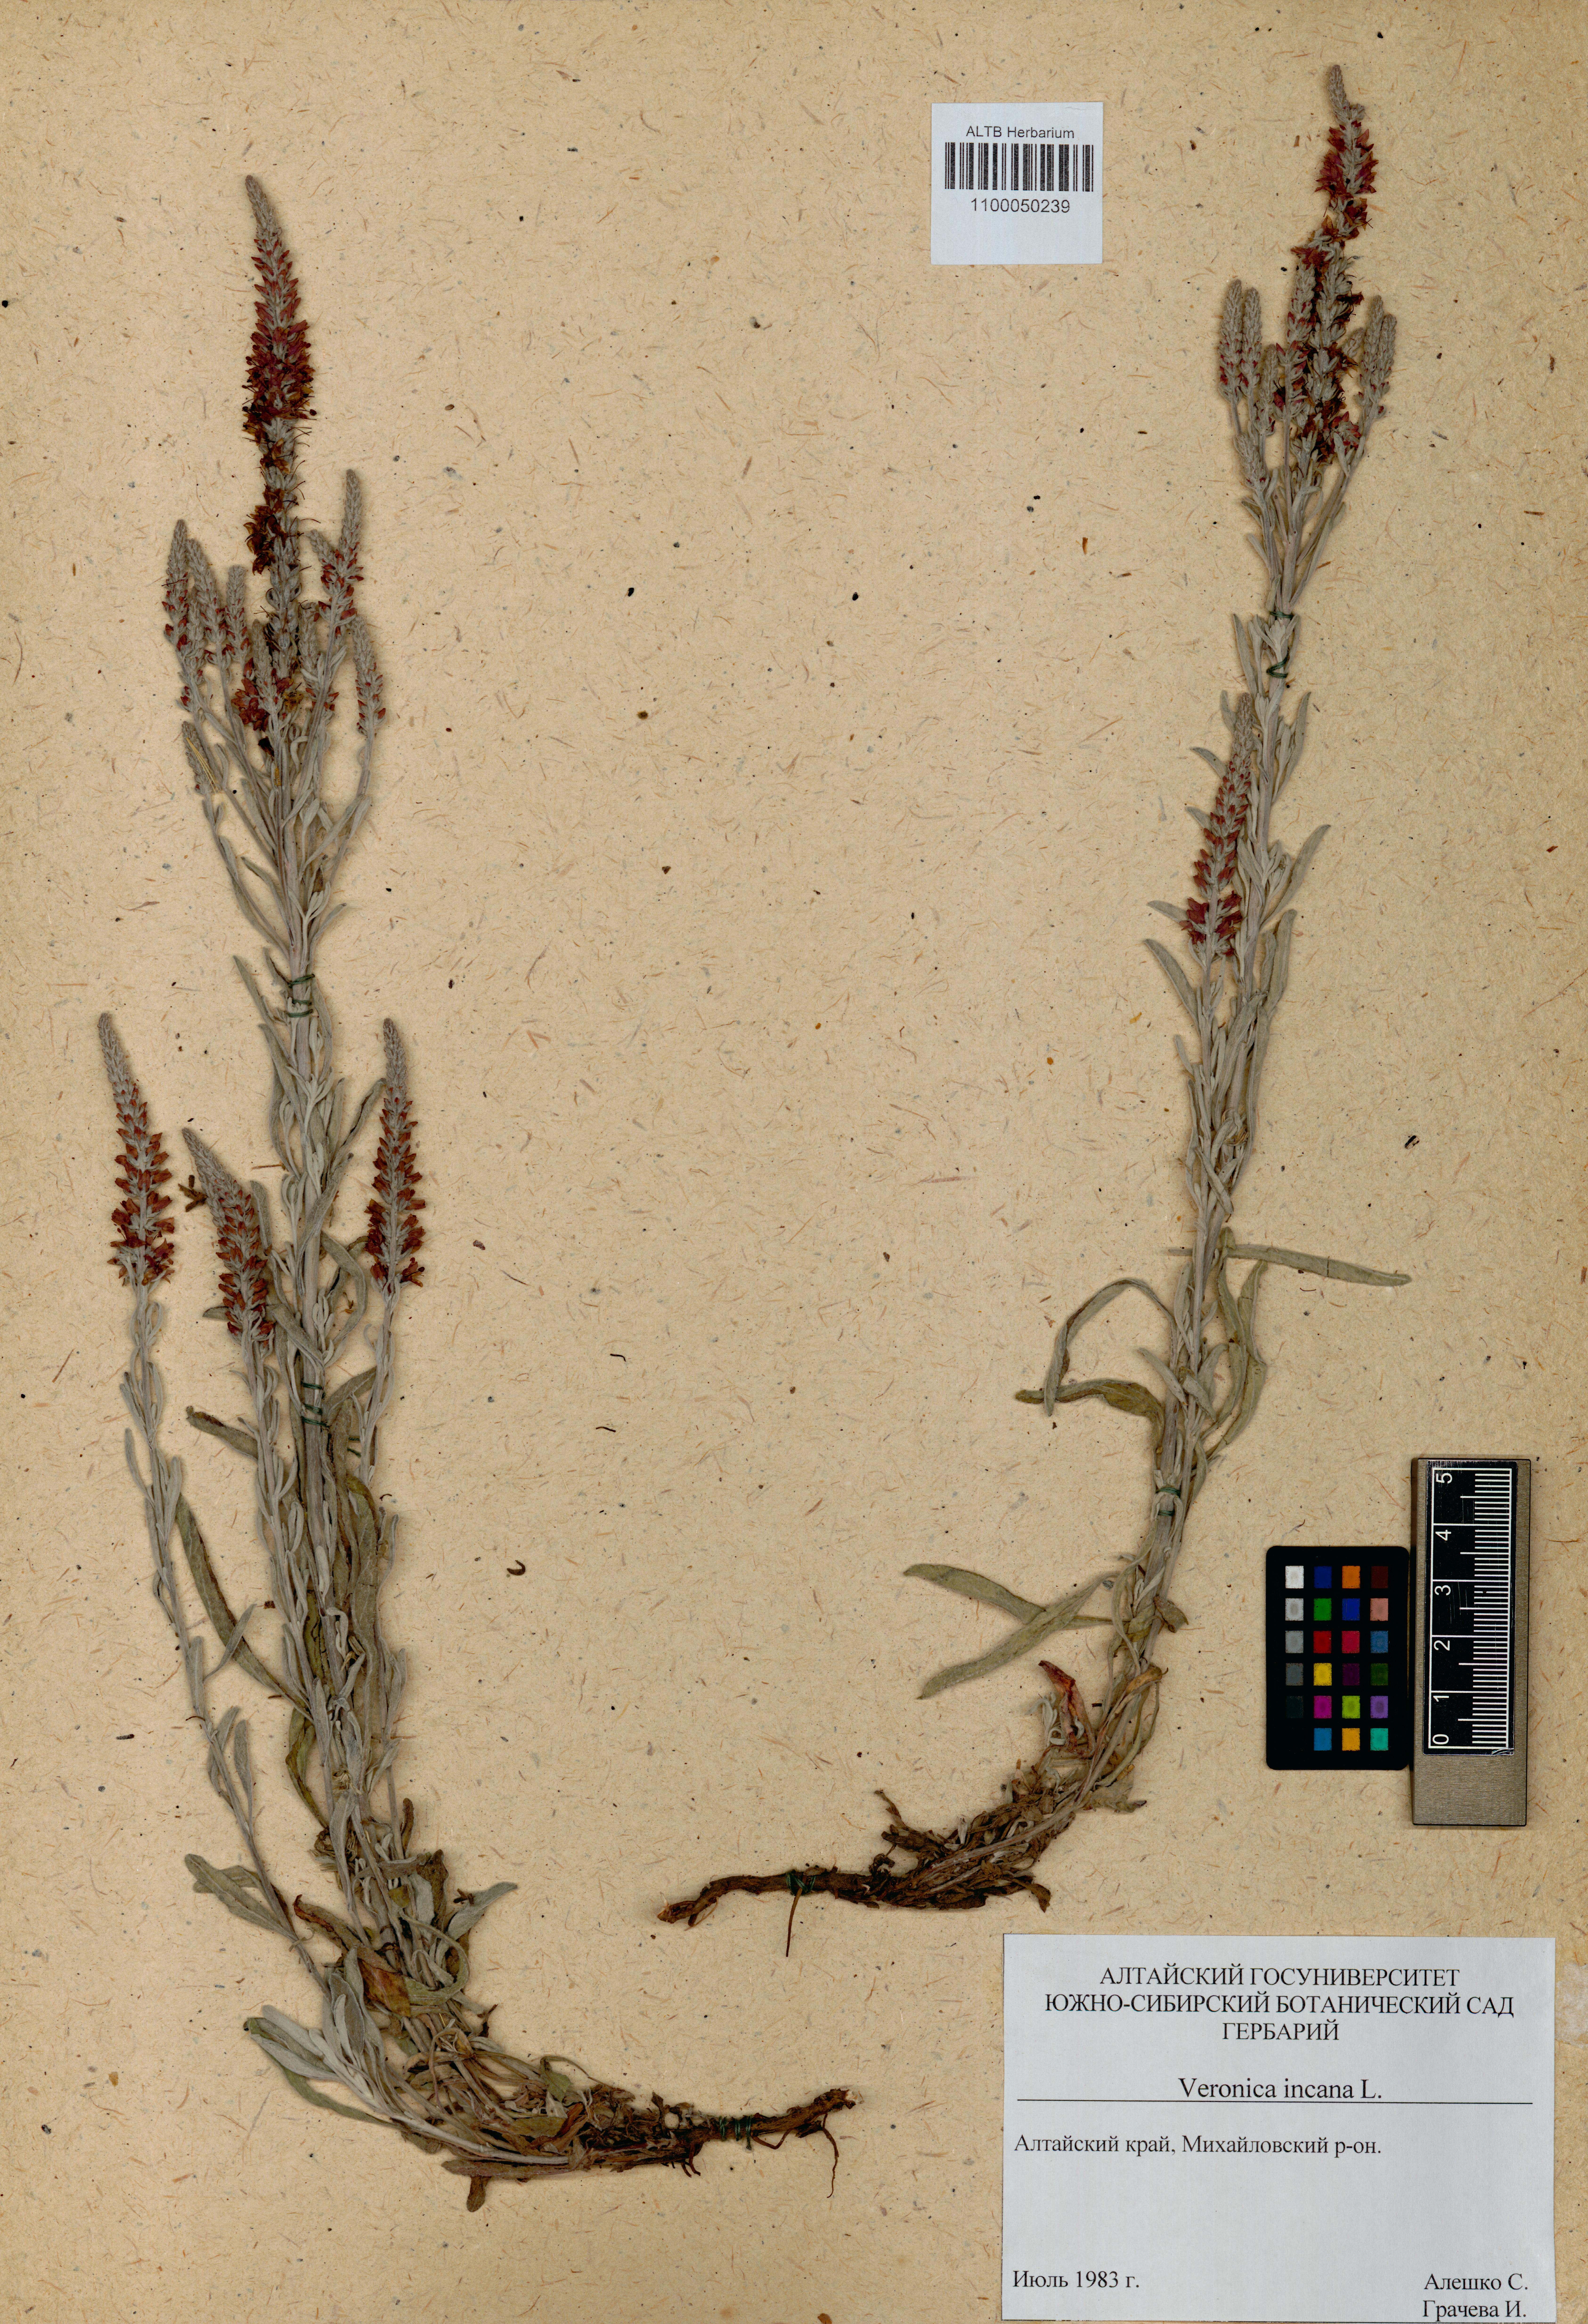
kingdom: Plantae
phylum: Tracheophyta
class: Magnoliopsida
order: Lamiales
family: Plantaginaceae
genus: Veronica
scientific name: Veronica incana
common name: Silver speedwell
